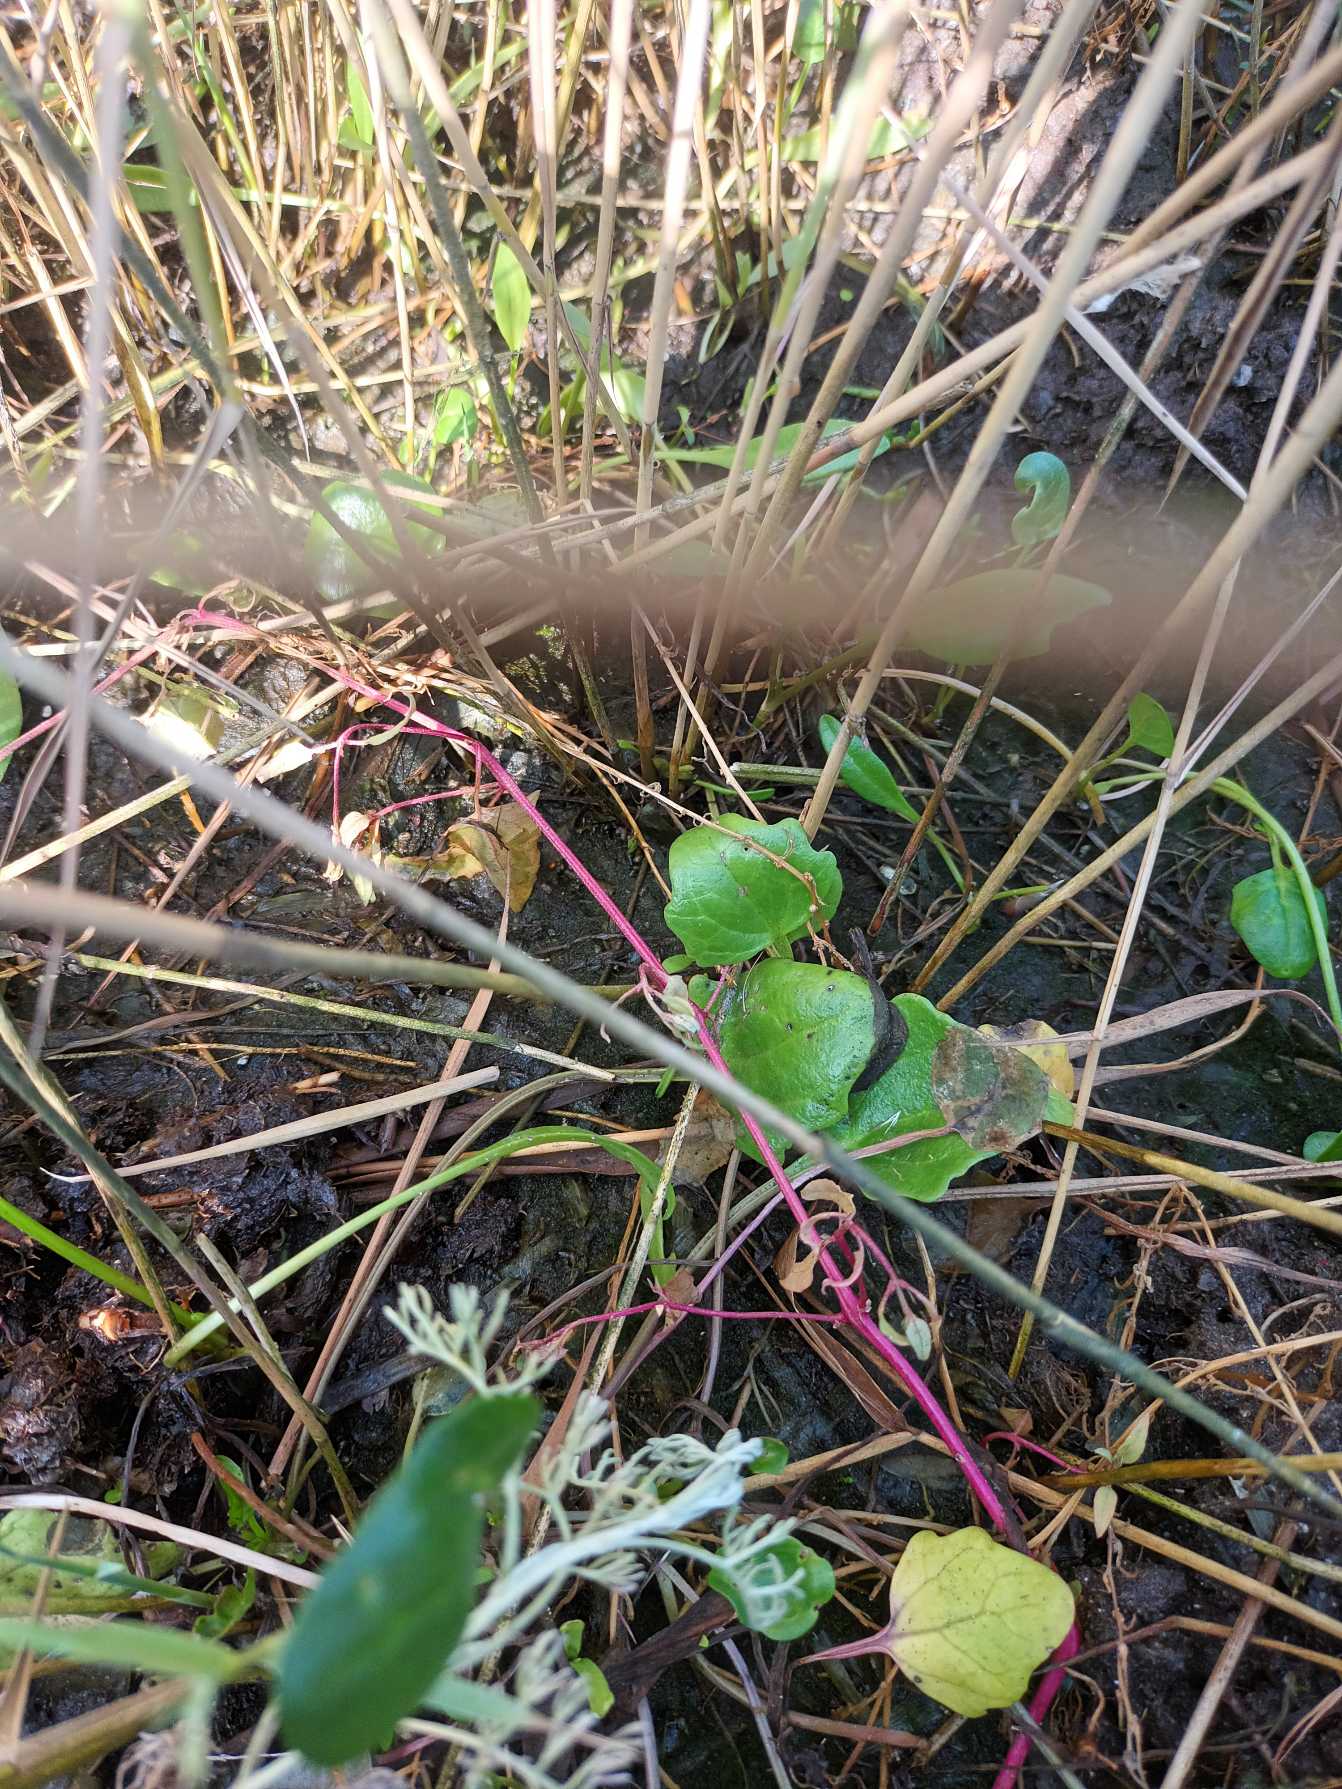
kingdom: Plantae
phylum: Tracheophyta
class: Magnoliopsida
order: Brassicales
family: Brassicaceae
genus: Cochlearia
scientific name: Cochlearia officinalis
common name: Læge-kokleare (underart)
